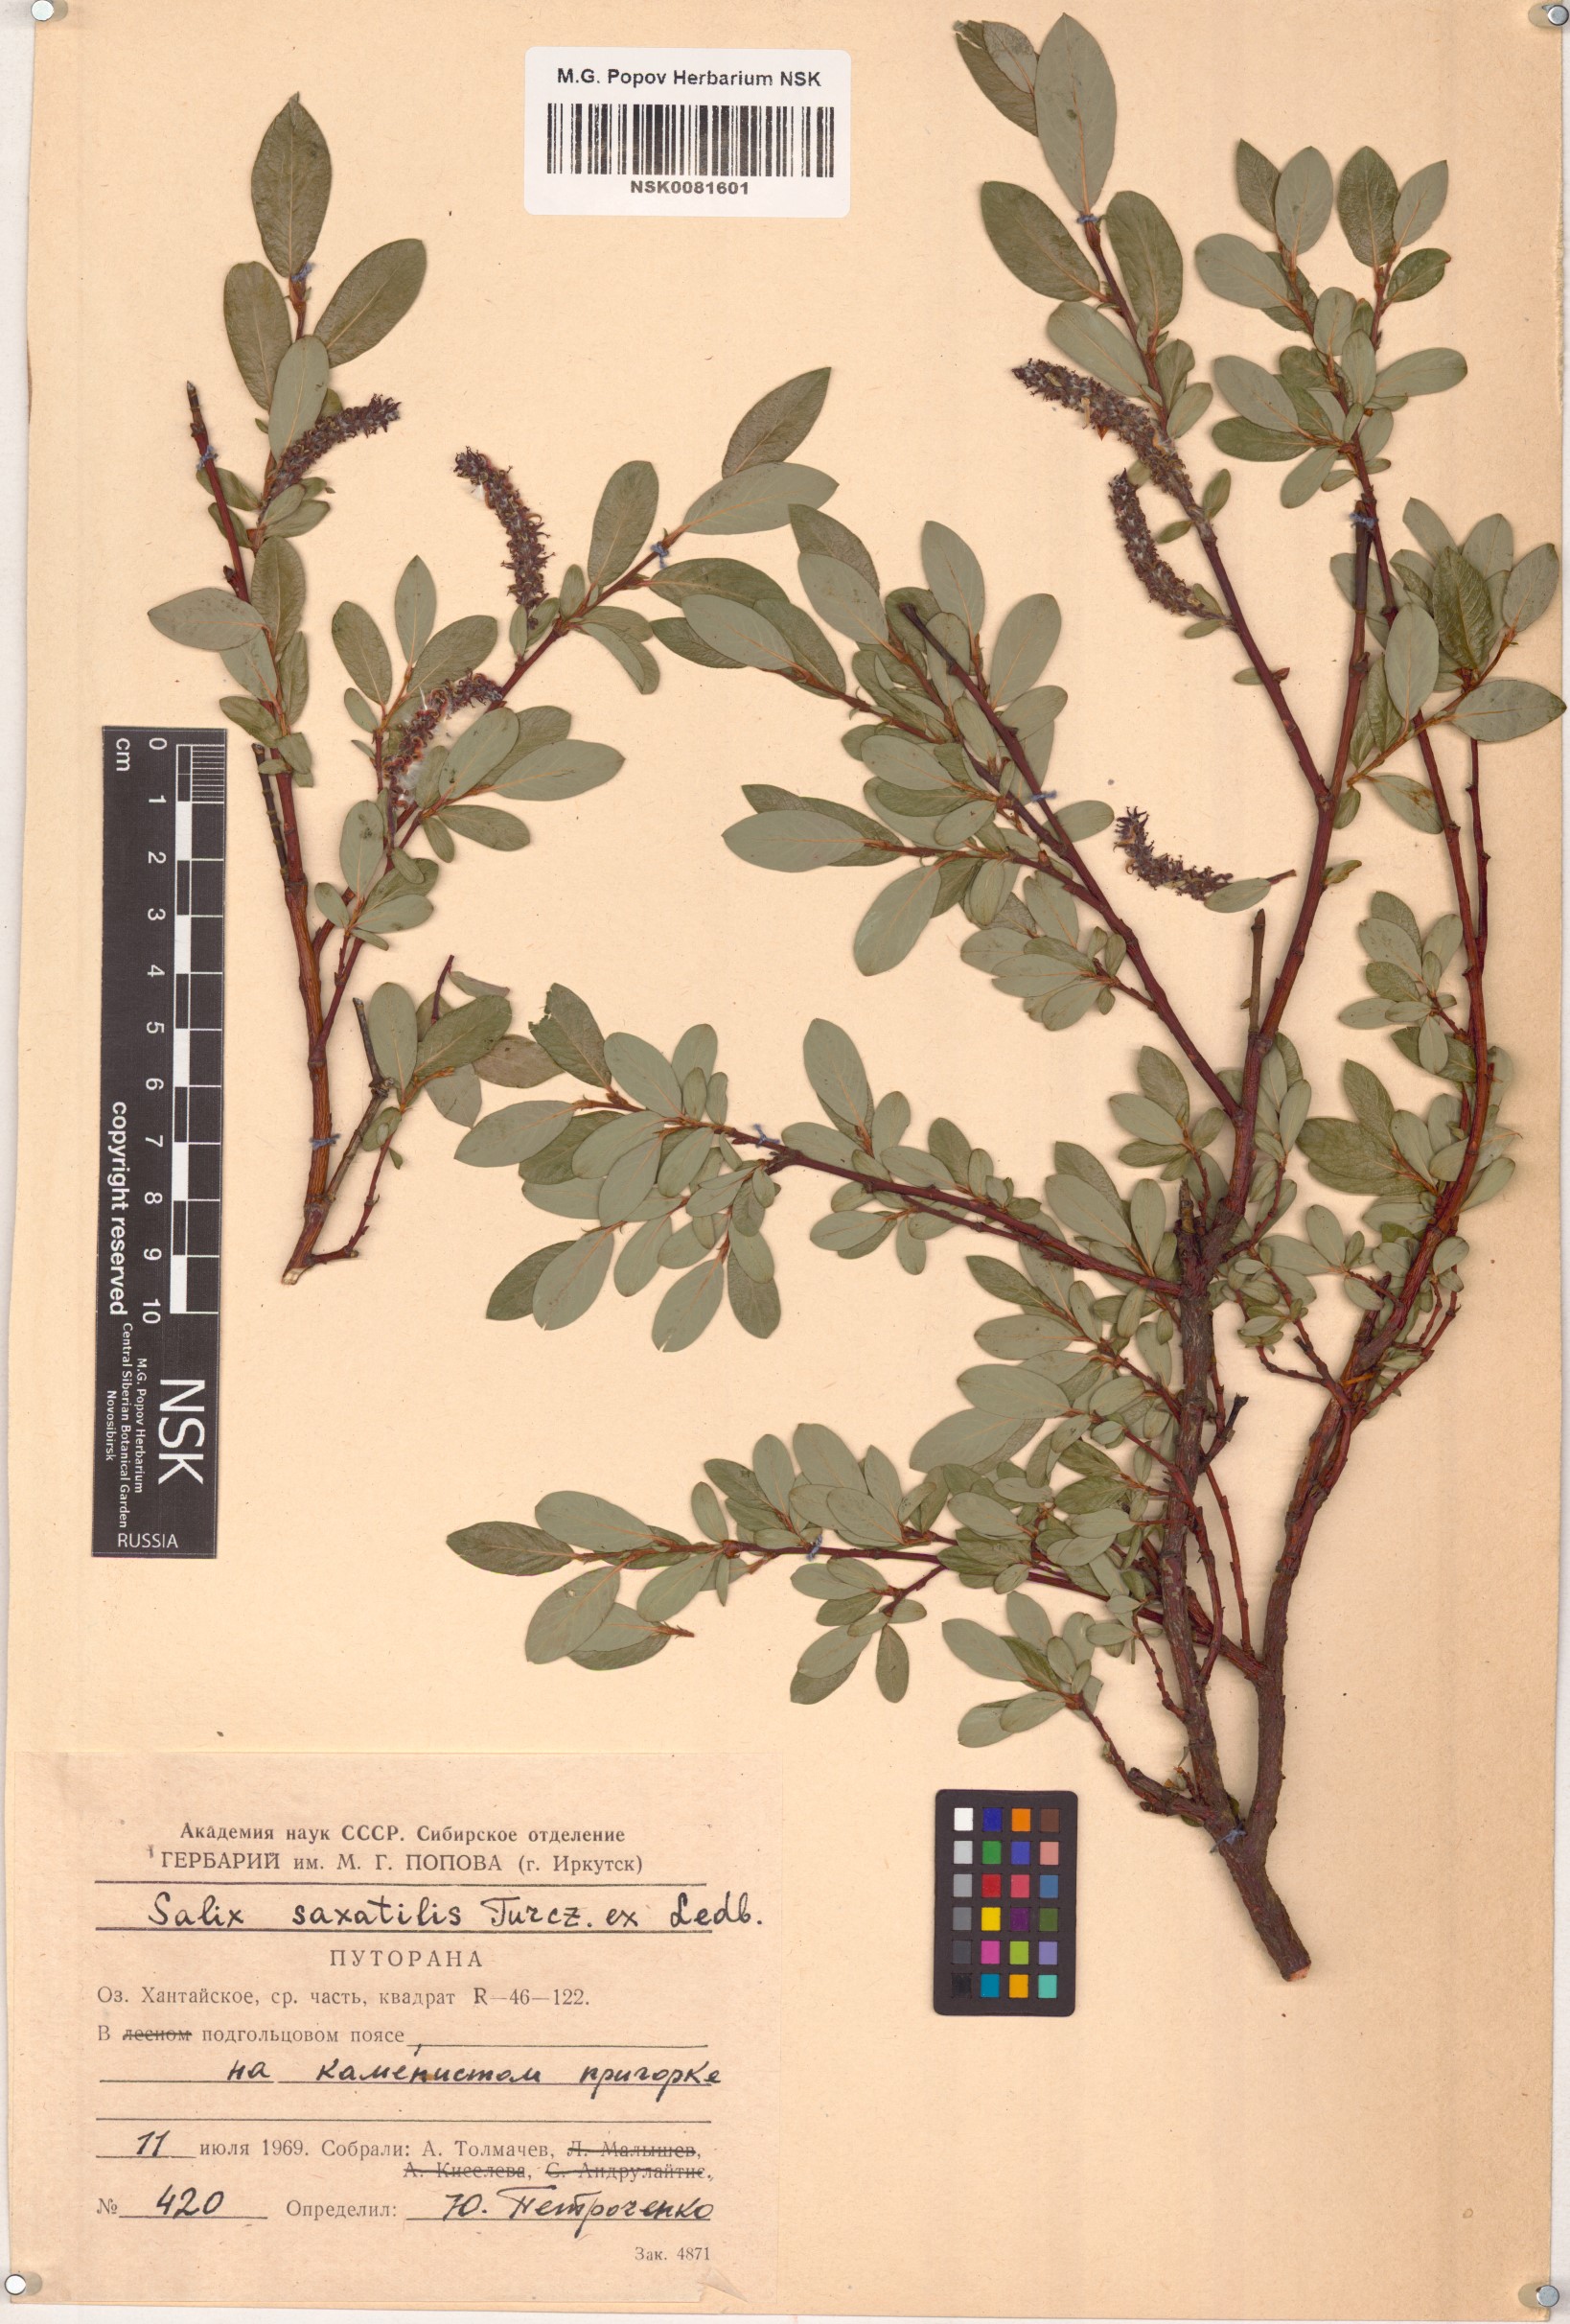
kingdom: Plantae
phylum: Tracheophyta
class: Magnoliopsida
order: Malpighiales
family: Salicaceae
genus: Salix
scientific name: Salix saxatilis
